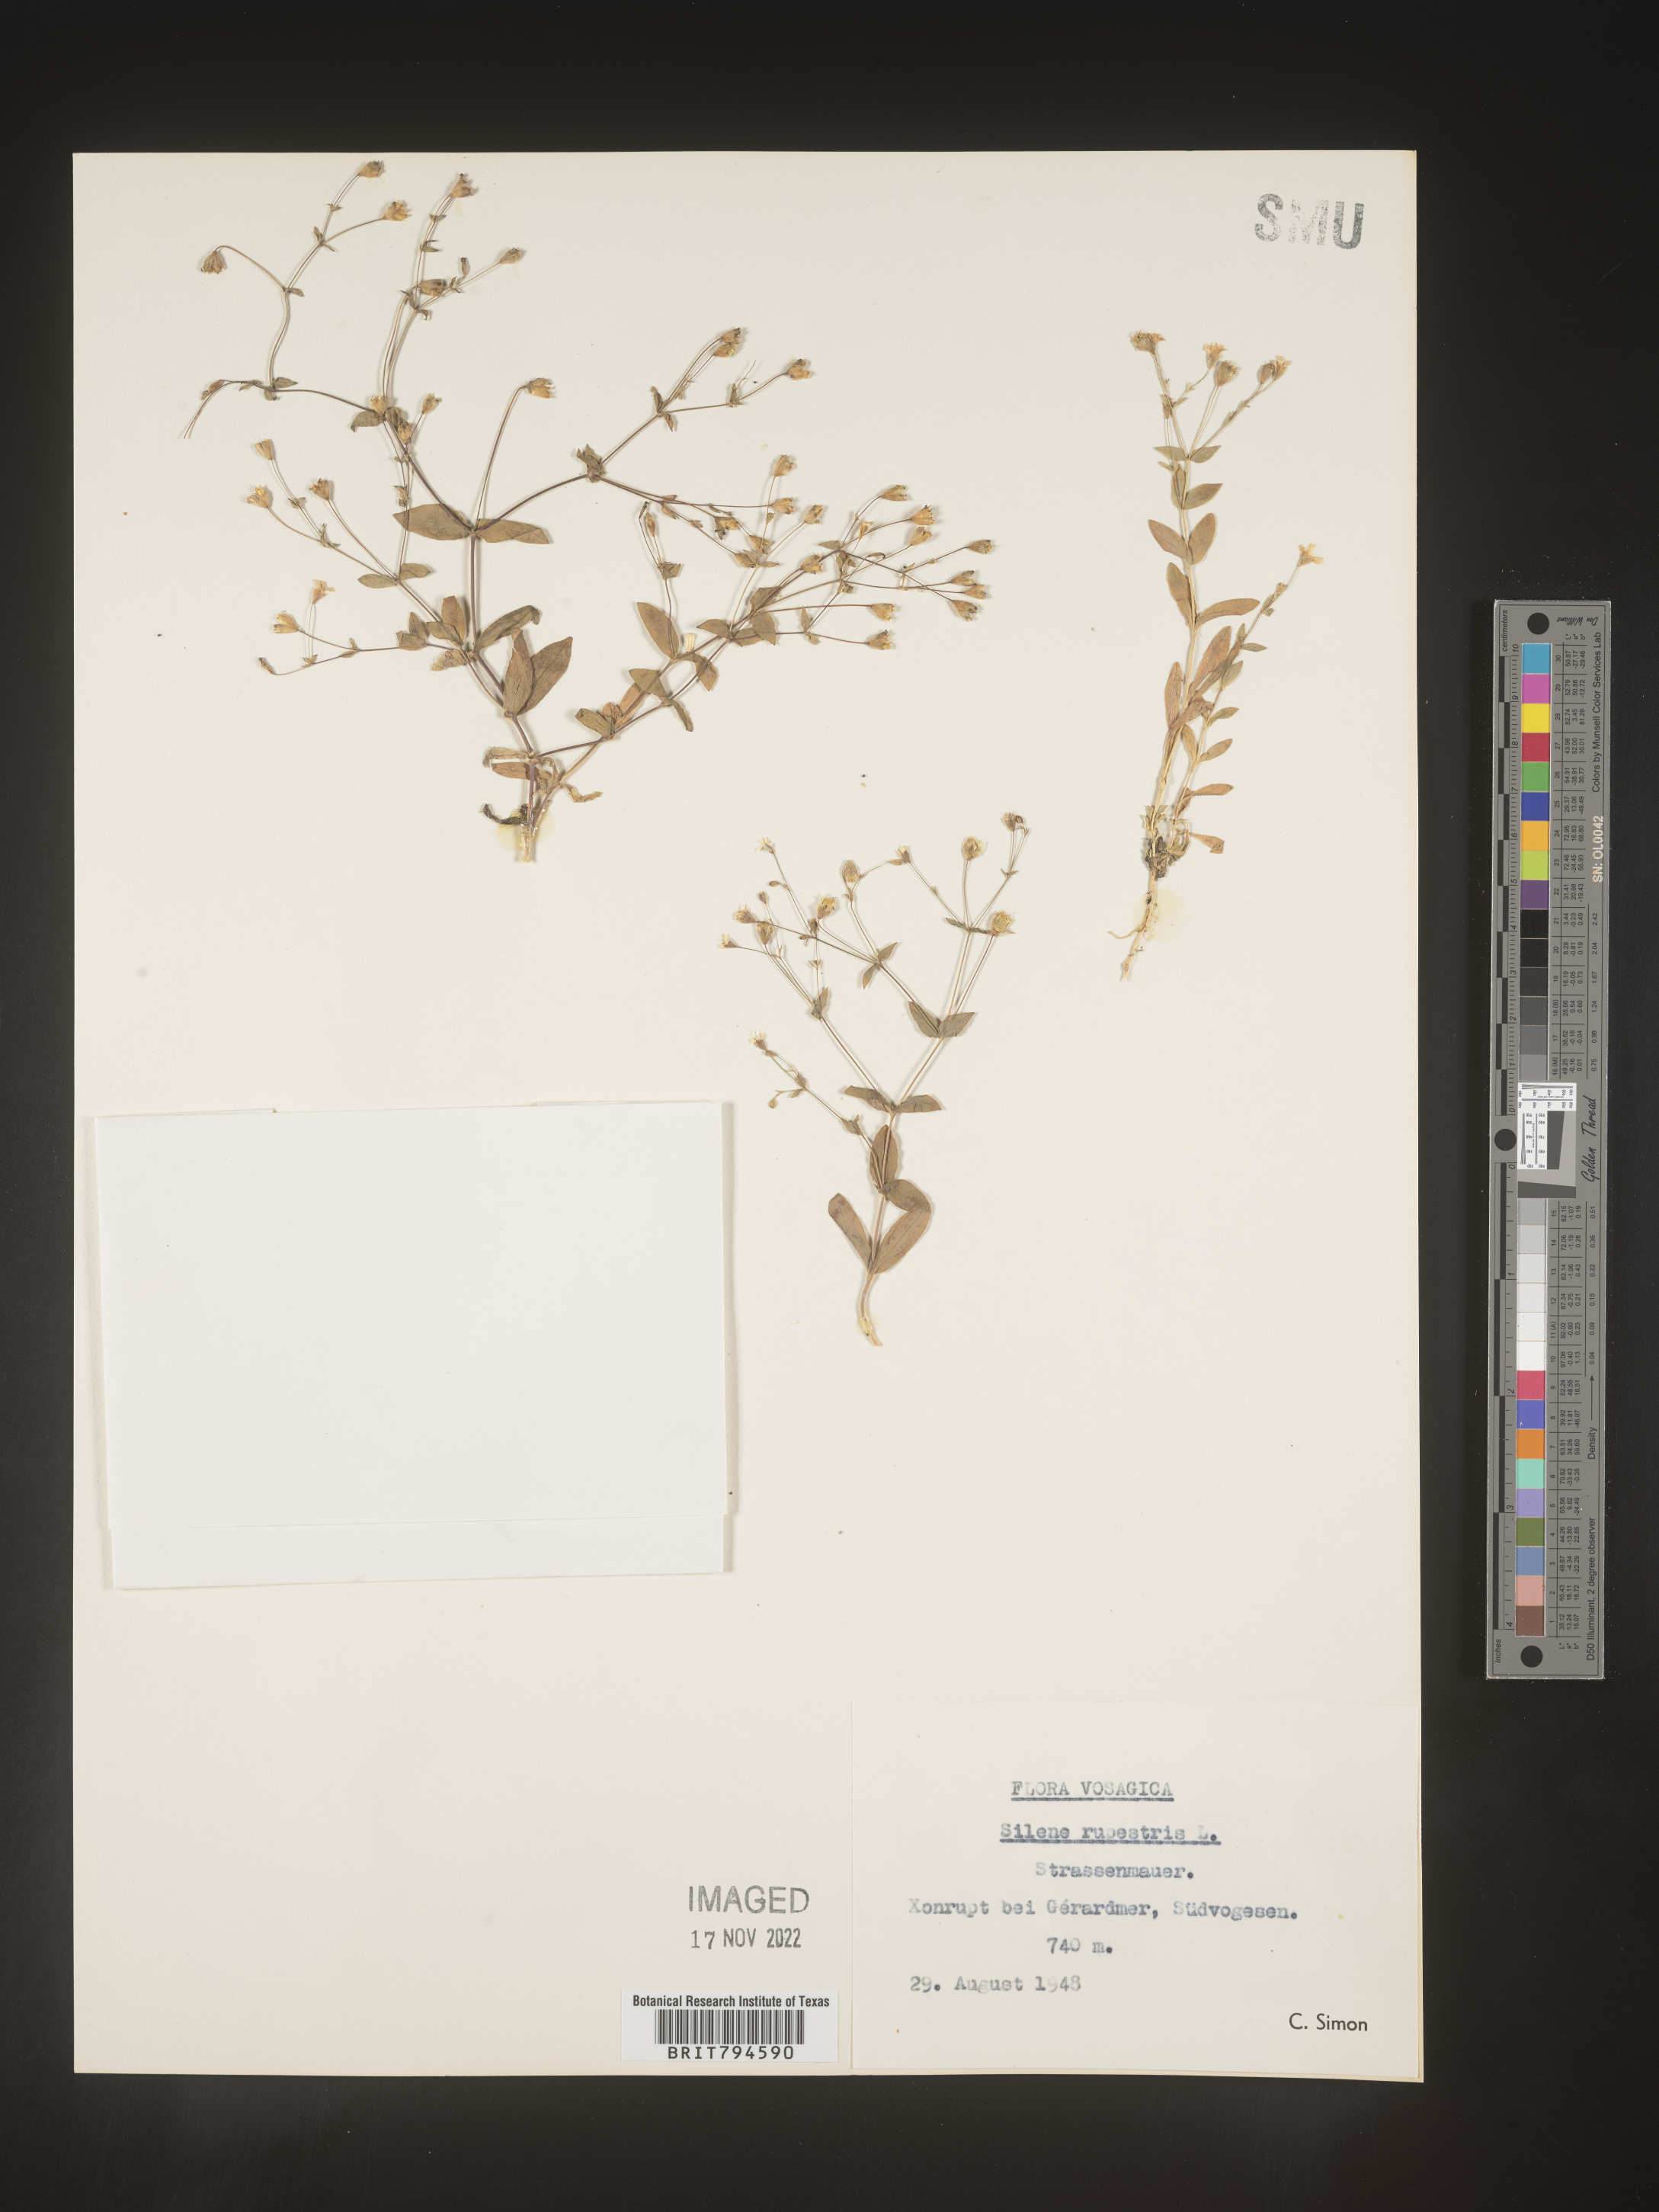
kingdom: Plantae
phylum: Tracheophyta
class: Magnoliopsida
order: Caryophyllales
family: Caryophyllaceae
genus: Atocion
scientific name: Atocion rupestre
